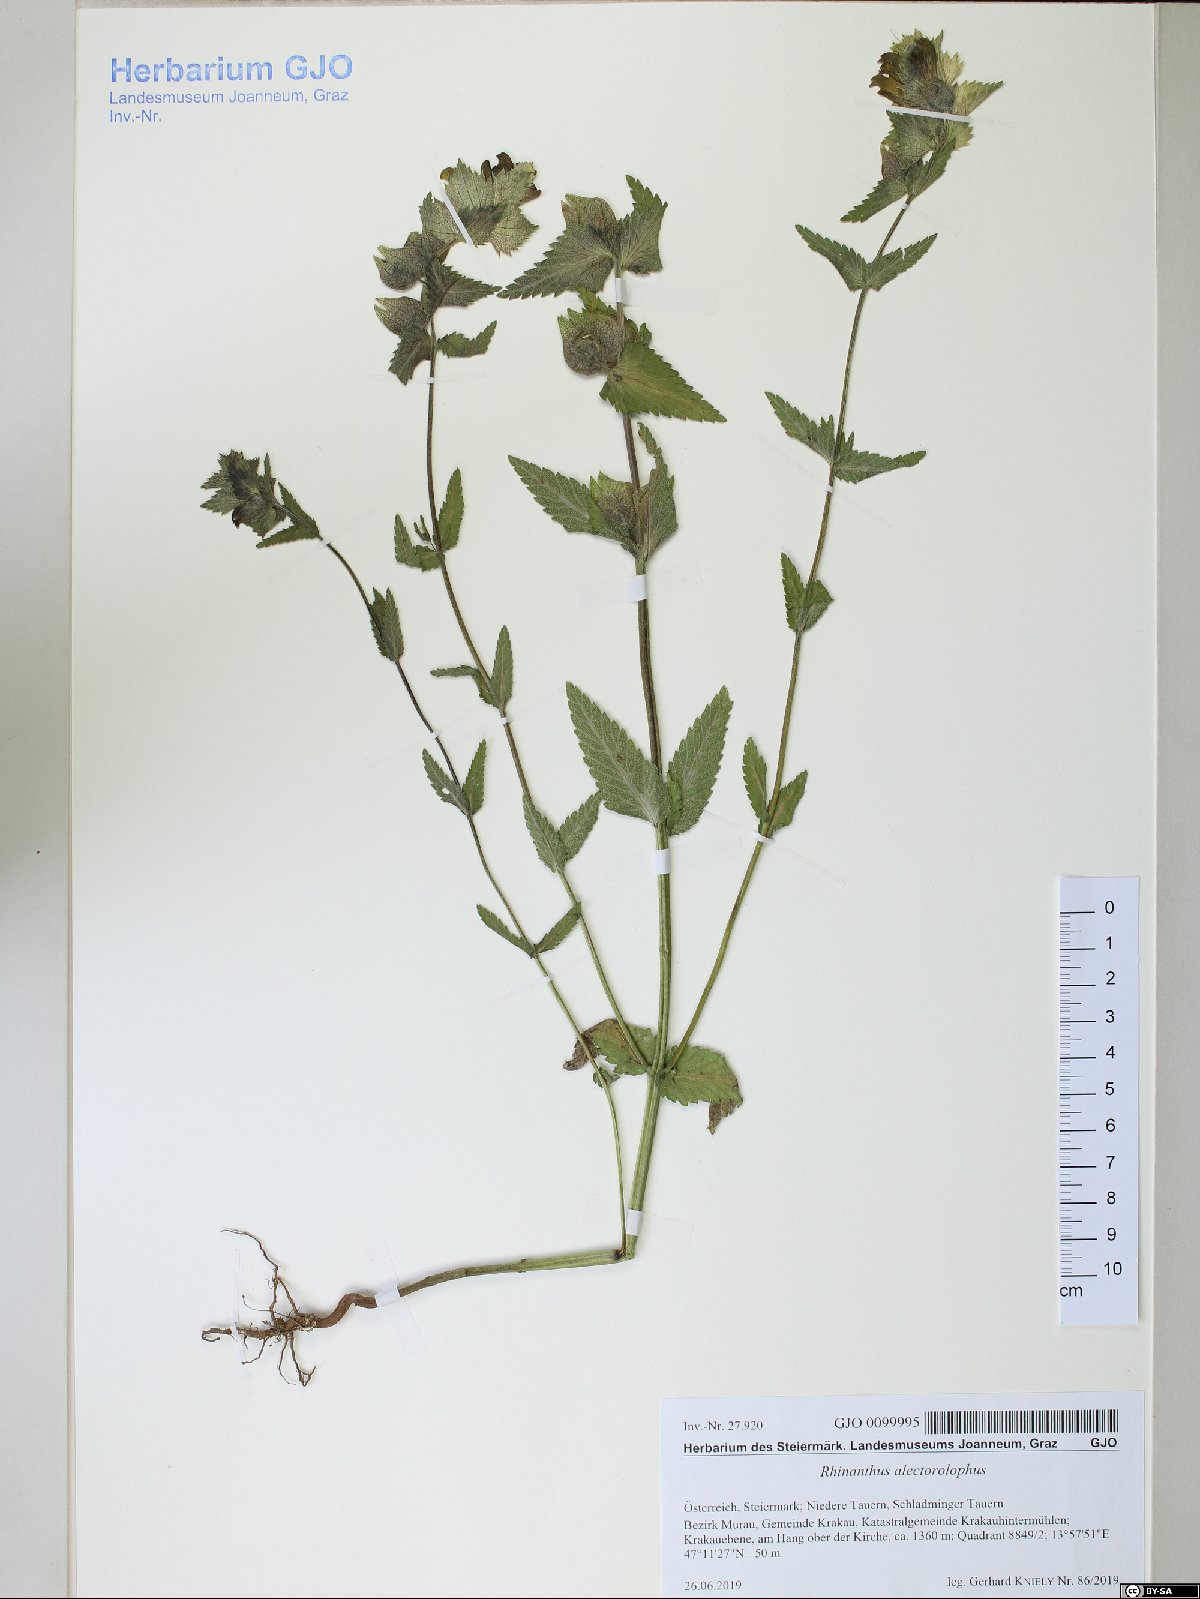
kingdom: Plantae
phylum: Tracheophyta
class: Magnoliopsida
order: Lamiales
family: Orobanchaceae
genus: Rhinanthus
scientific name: Rhinanthus alectorolophus
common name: Greater yellow-rattle
